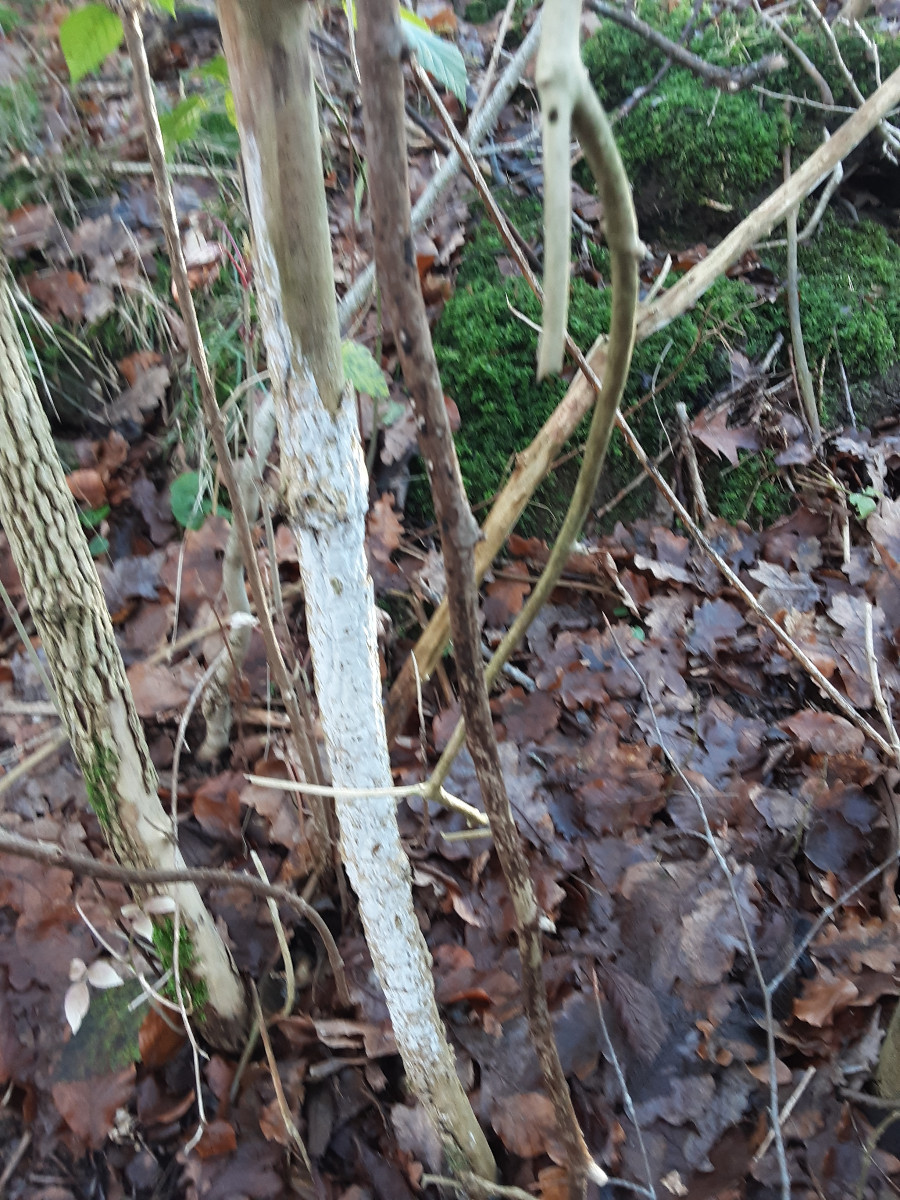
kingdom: Fungi
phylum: Basidiomycota
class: Agaricomycetes
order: Corticiales
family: Corticiaceae
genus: Lyomyces
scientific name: Lyomyces sambuci
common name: almindelig hyldehinde
